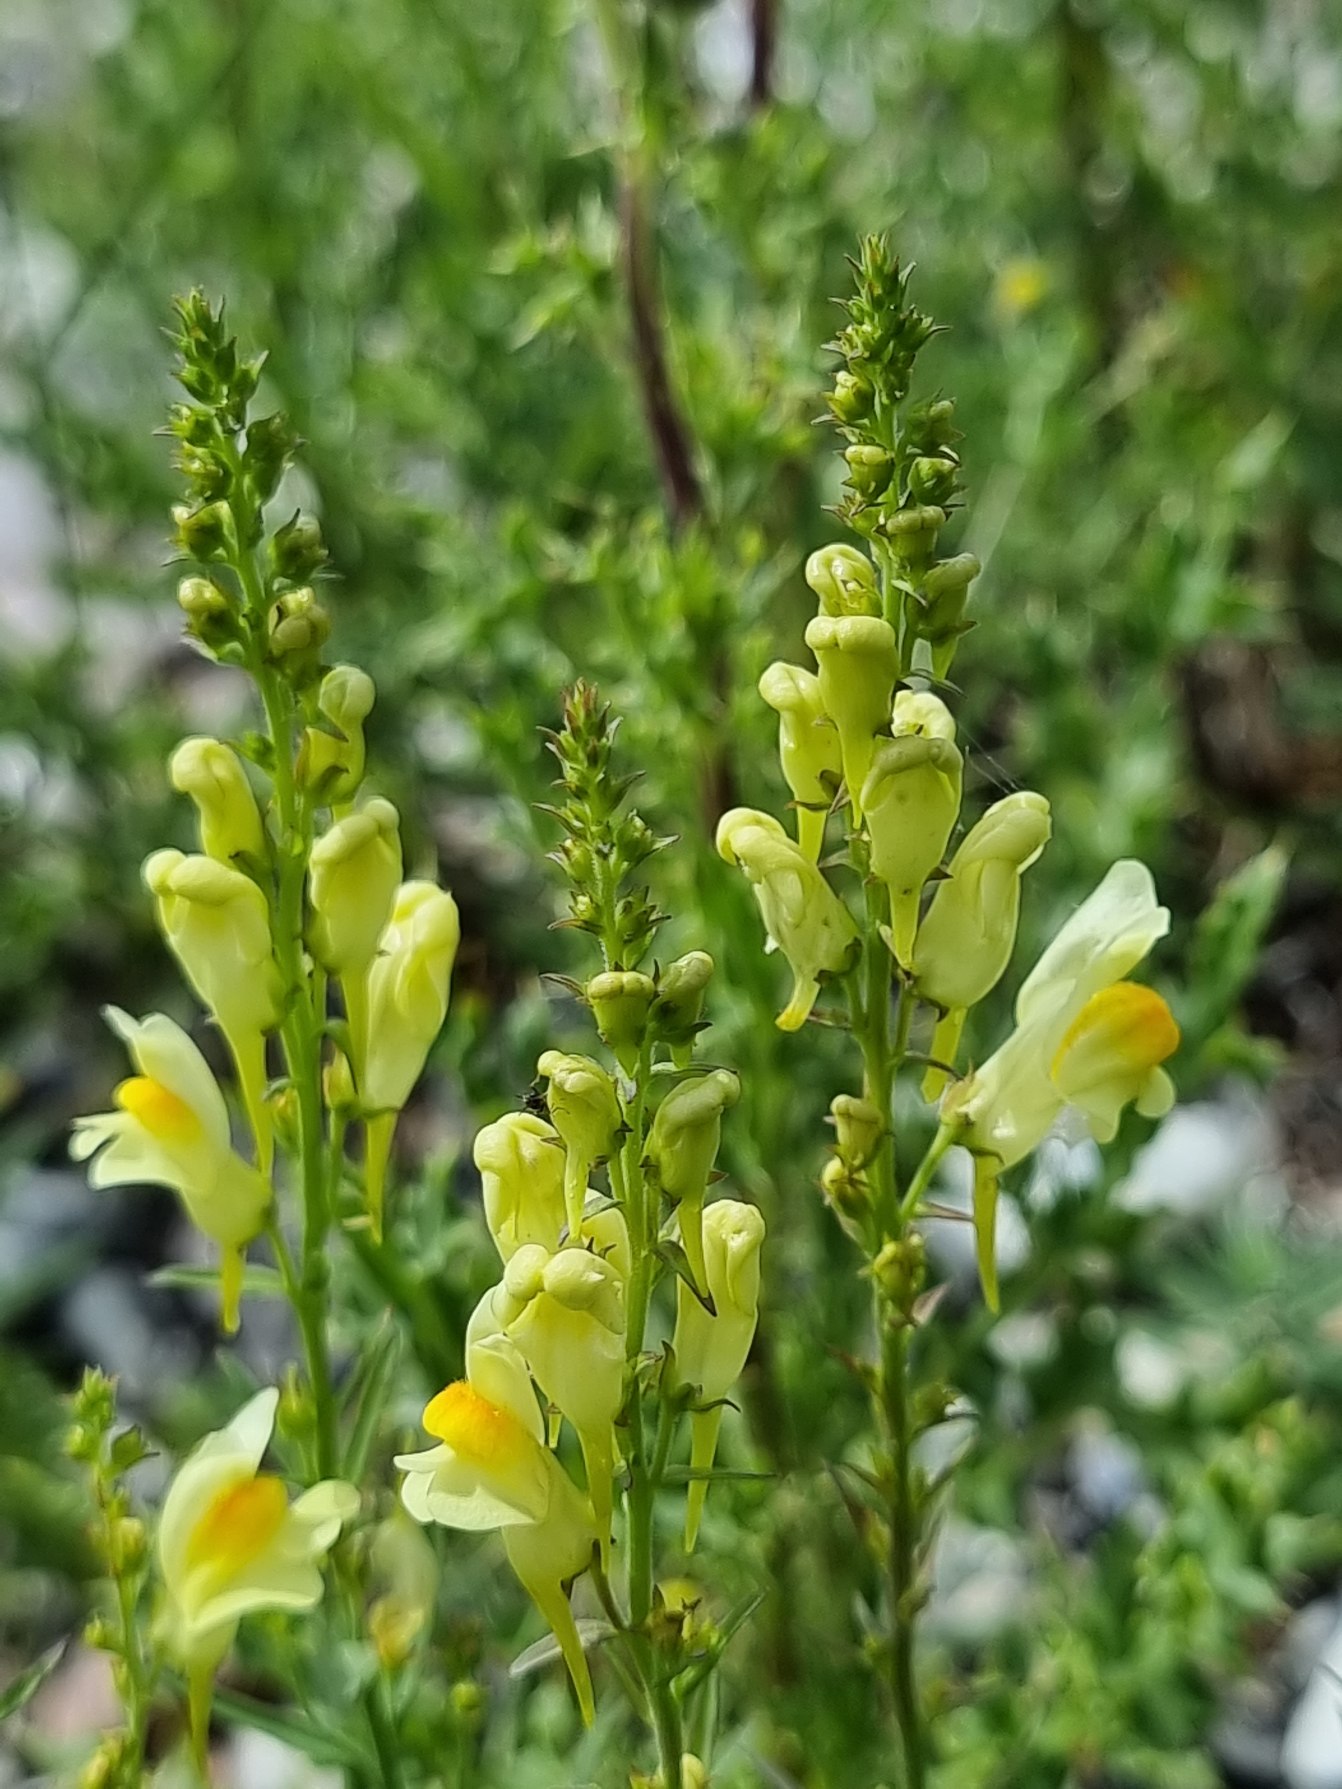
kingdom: Plantae
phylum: Tracheophyta
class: Magnoliopsida
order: Lamiales
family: Plantaginaceae
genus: Linaria
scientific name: Linaria vulgaris
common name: Almindelig torskemund
